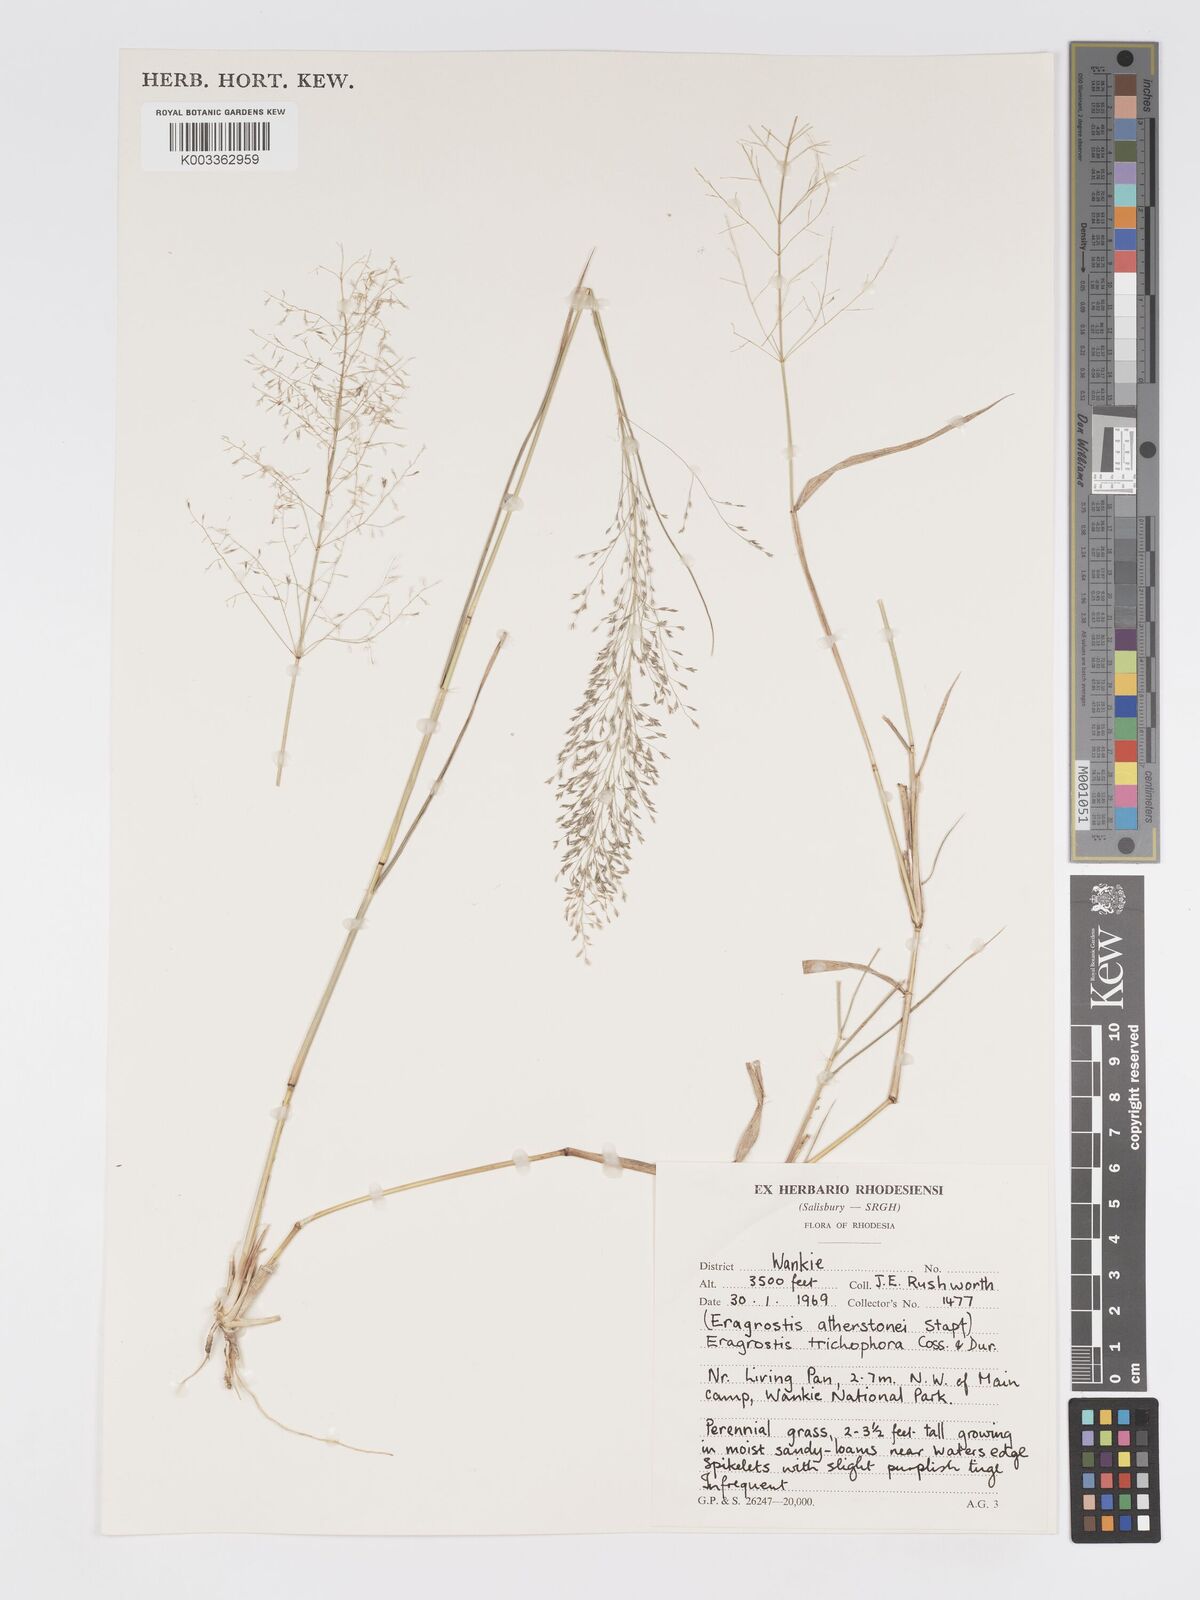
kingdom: Plantae
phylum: Tracheophyta
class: Liliopsida
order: Poales
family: Poaceae
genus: Eragrostis
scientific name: Eragrostis cylindriflora
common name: Cylinderflower lovegrass
